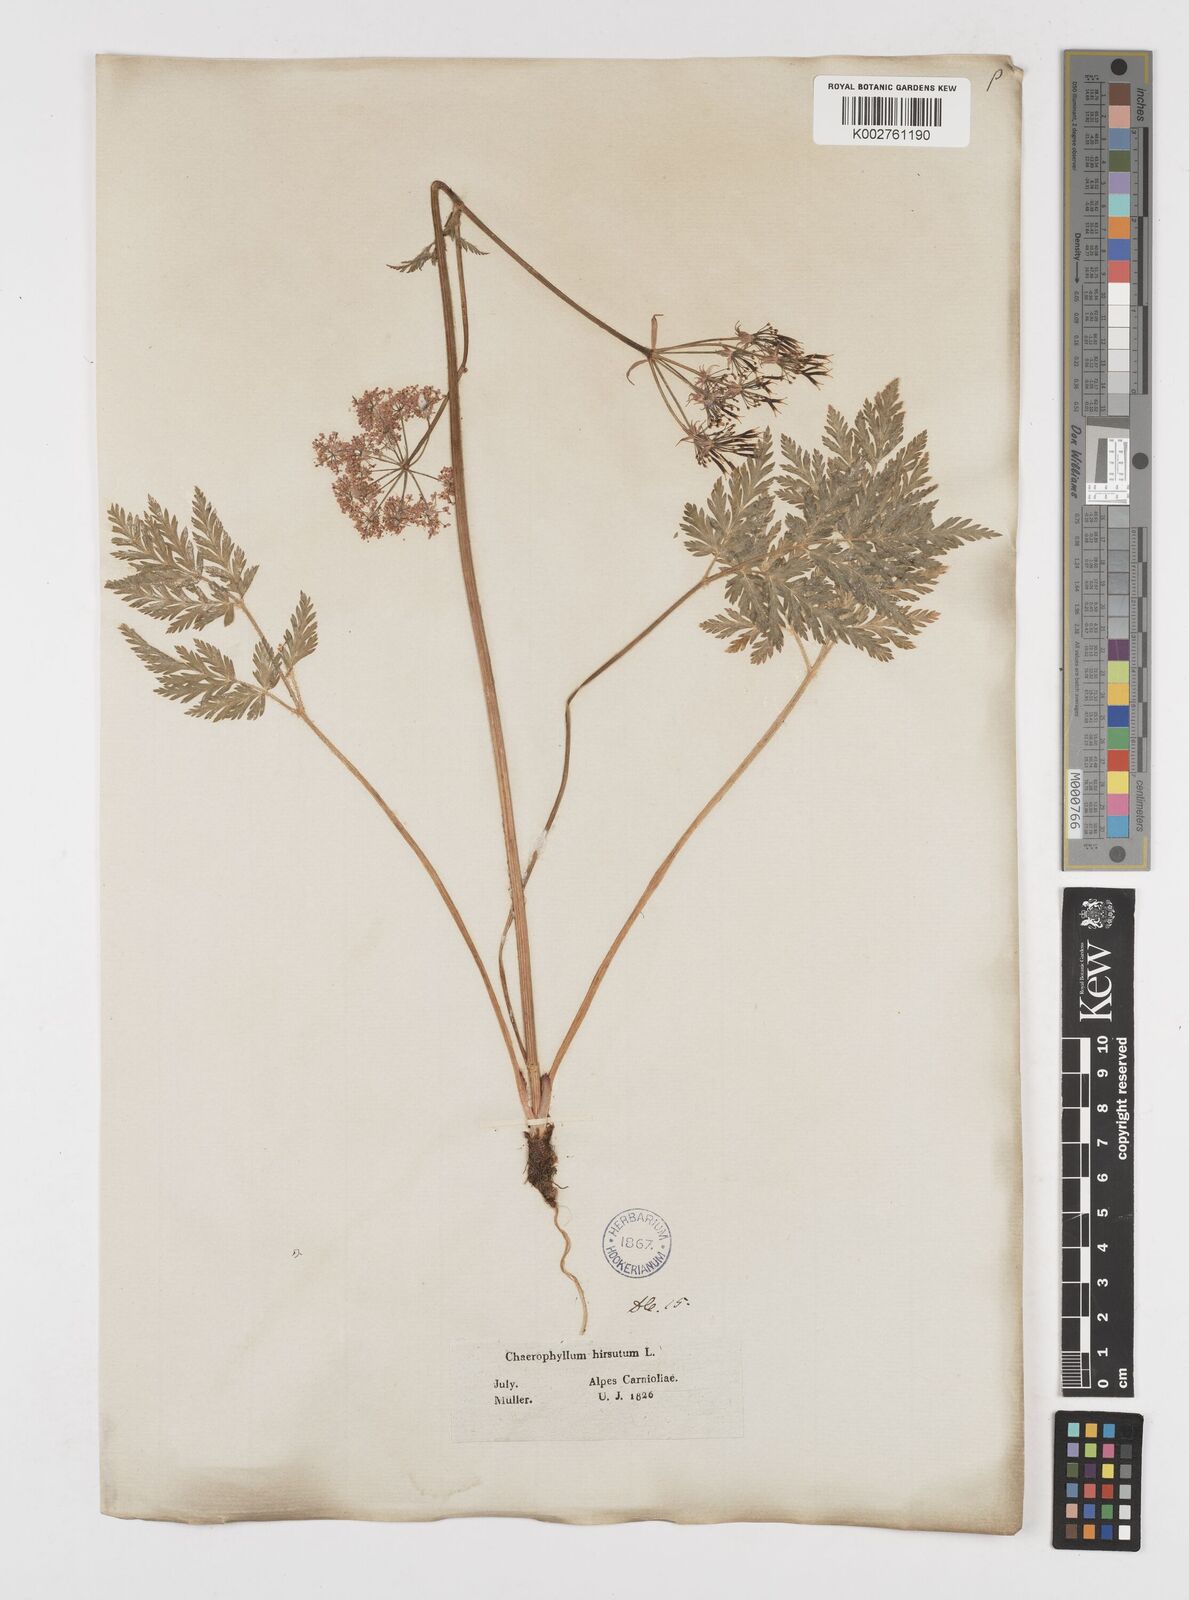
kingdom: Plantae
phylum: Tracheophyta
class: Magnoliopsida
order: Apiales
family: Apiaceae
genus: Chaerophyllum
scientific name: Chaerophyllum hirsutum
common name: Hairy chervil
